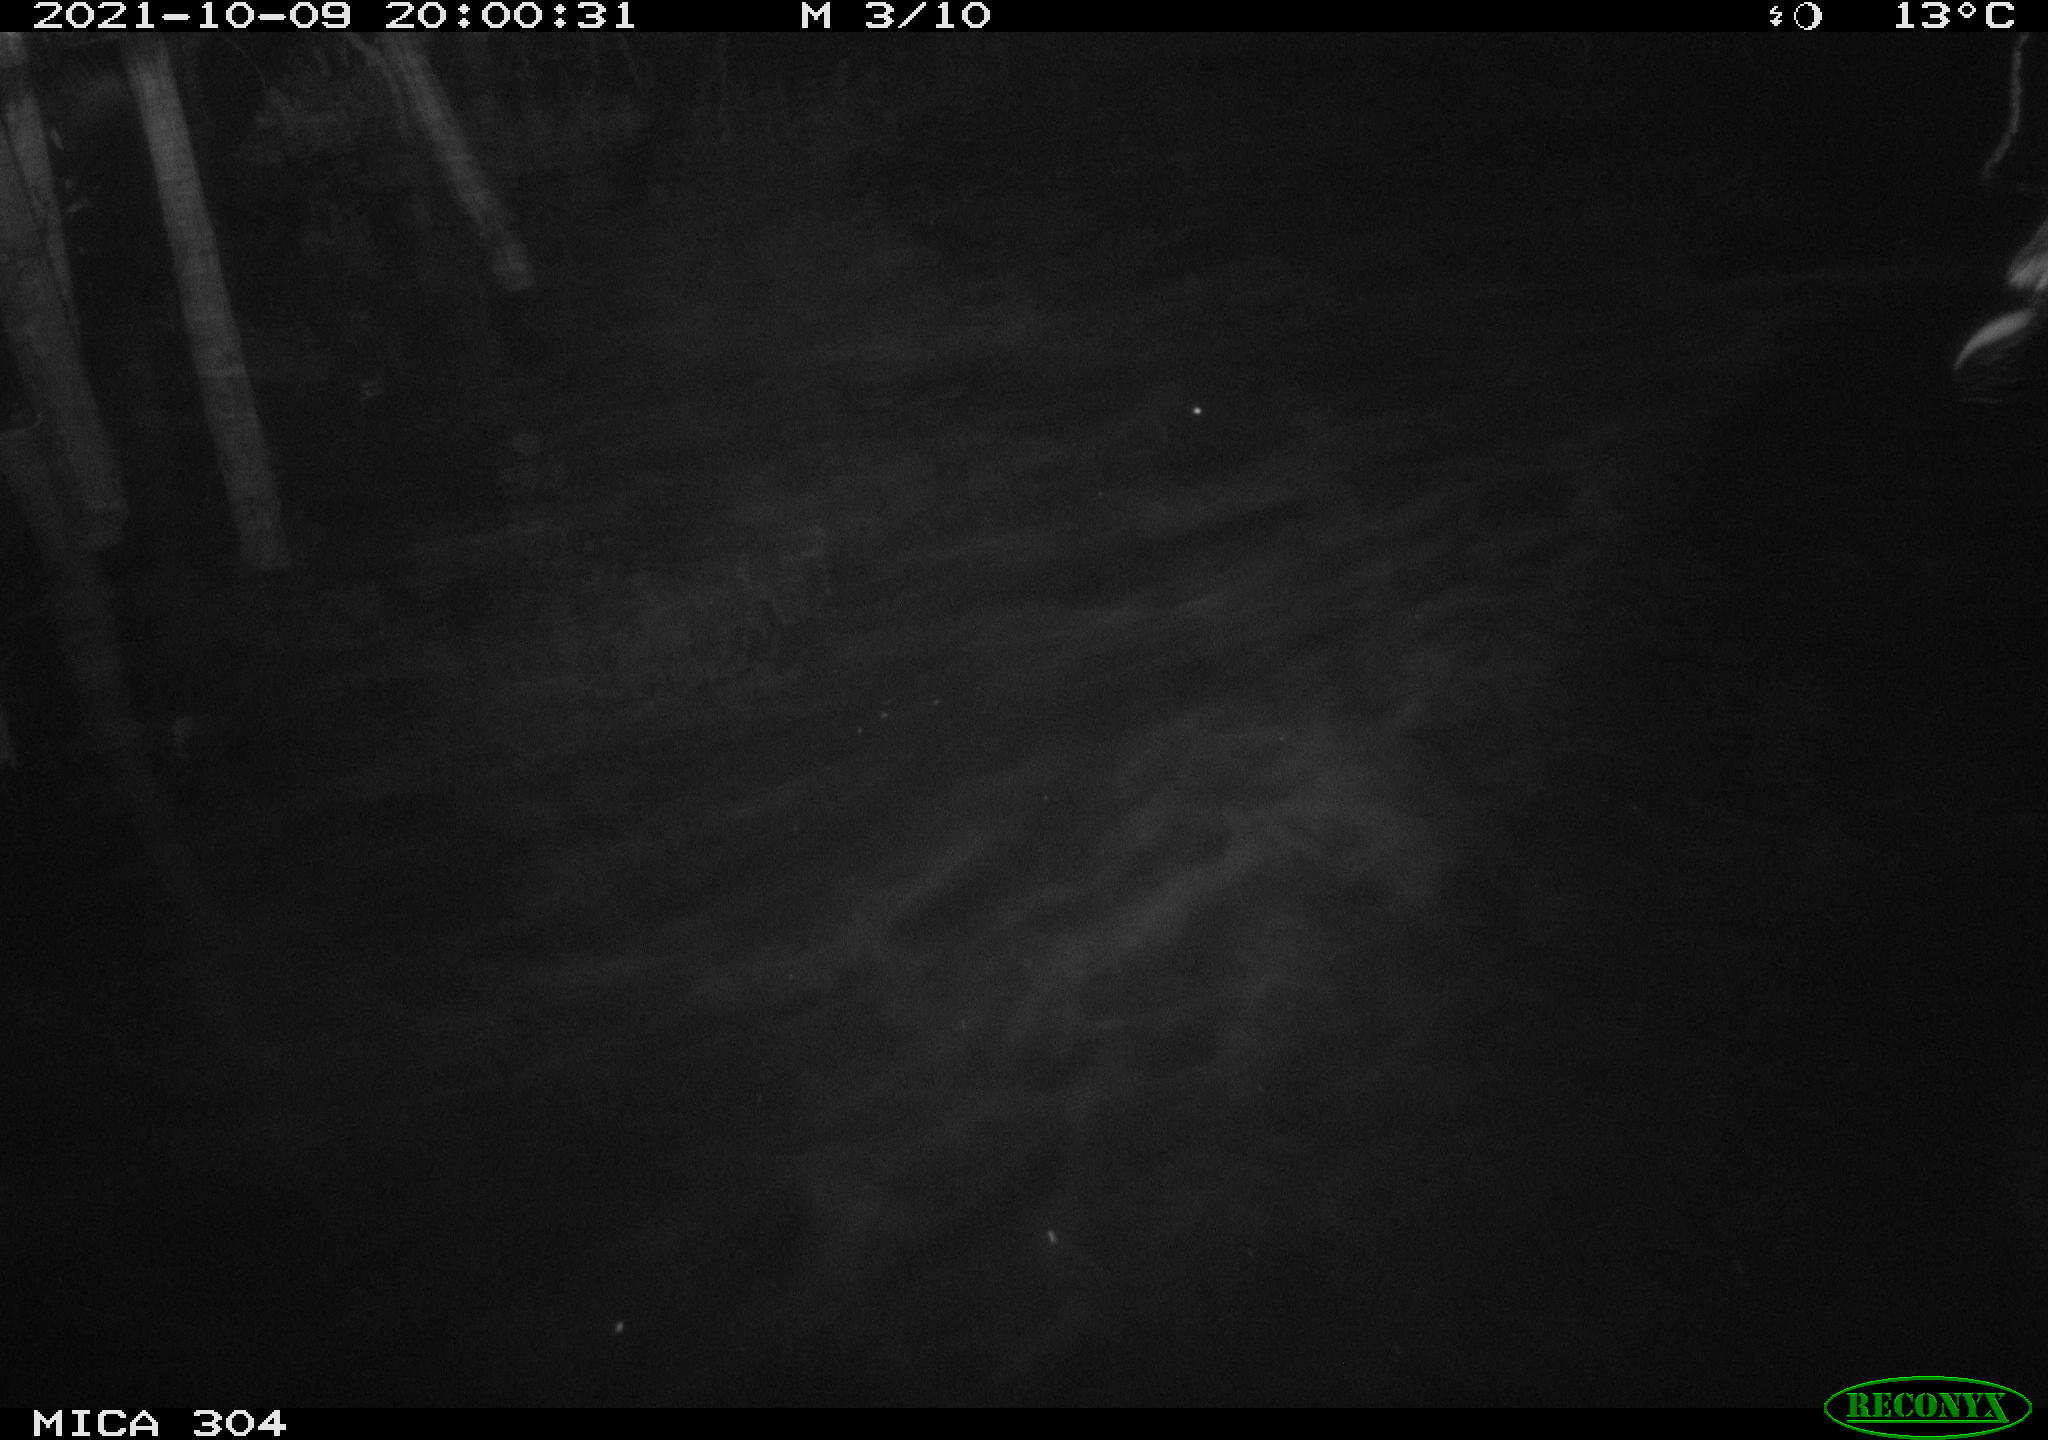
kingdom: Animalia
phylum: Chordata
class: Mammalia
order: Rodentia
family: Cricetidae
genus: Ondatra
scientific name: Ondatra zibethicus
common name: Muskrat
